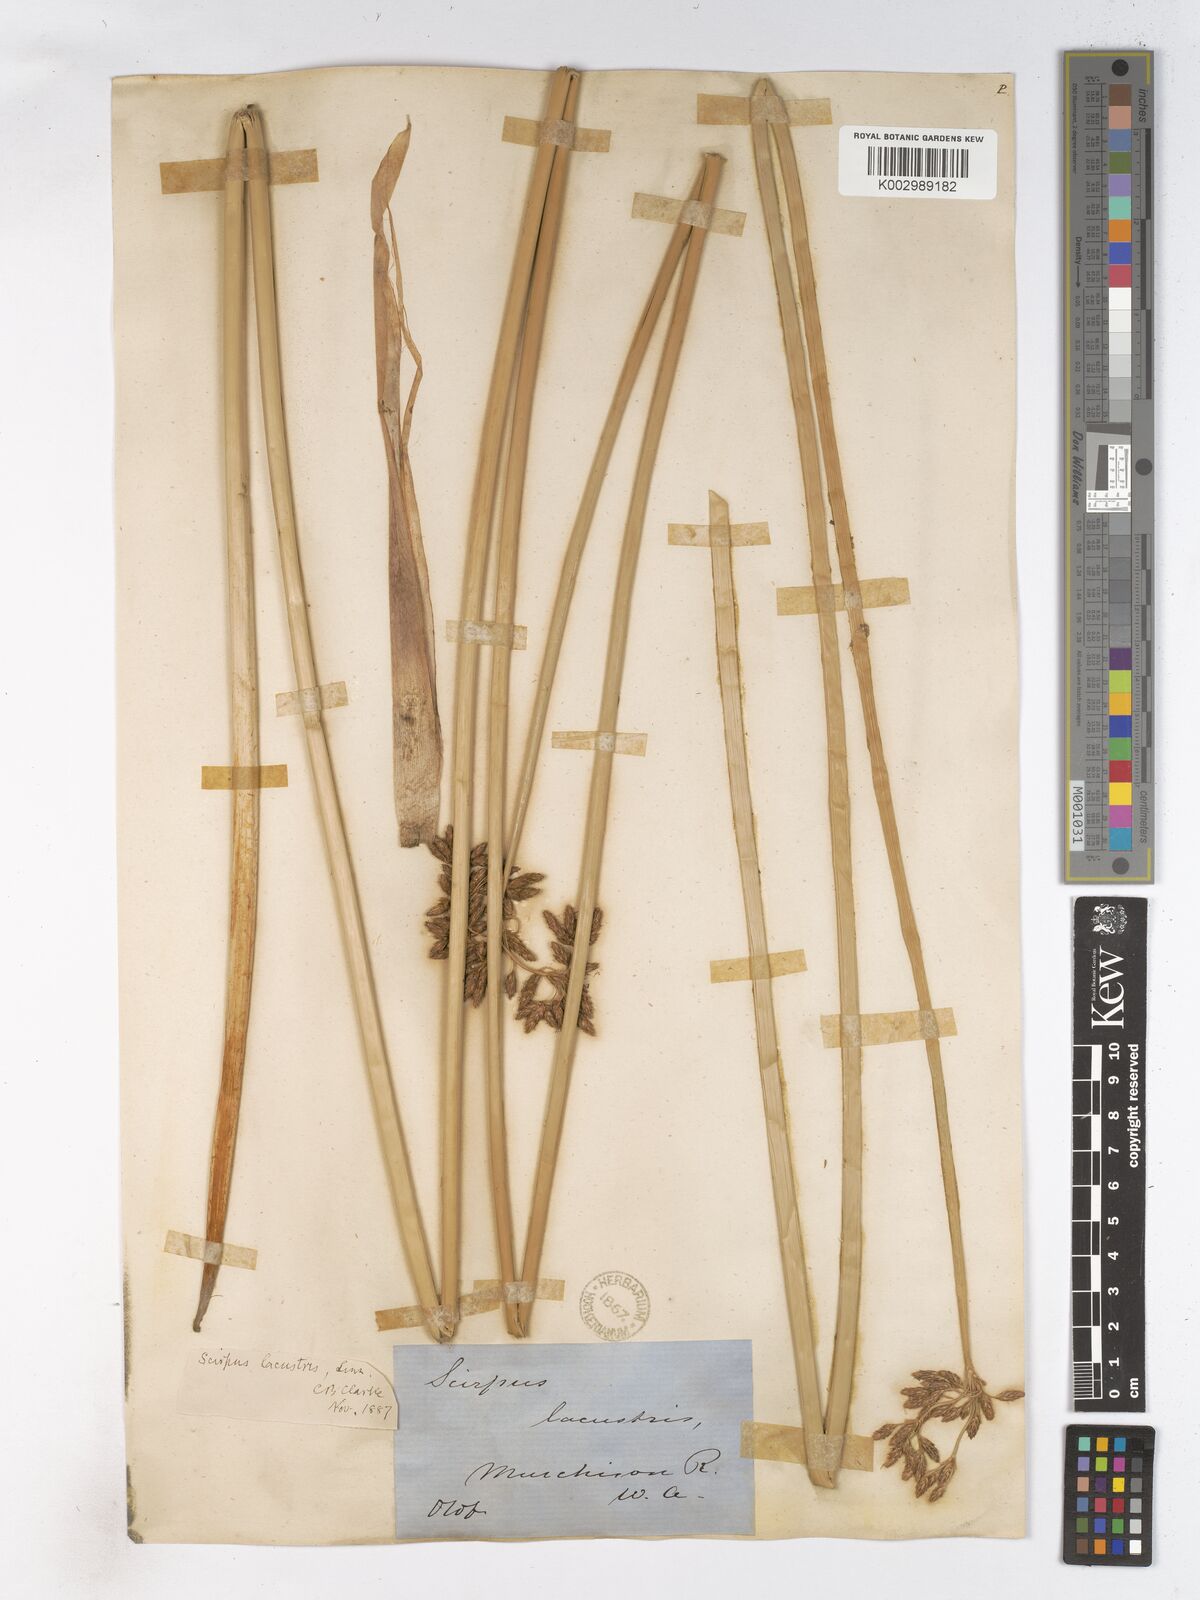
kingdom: Plantae
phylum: Tracheophyta
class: Liliopsida
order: Poales
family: Cyperaceae
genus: Schoenoplectus
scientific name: Schoenoplectus lacustris
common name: Common club-rush
